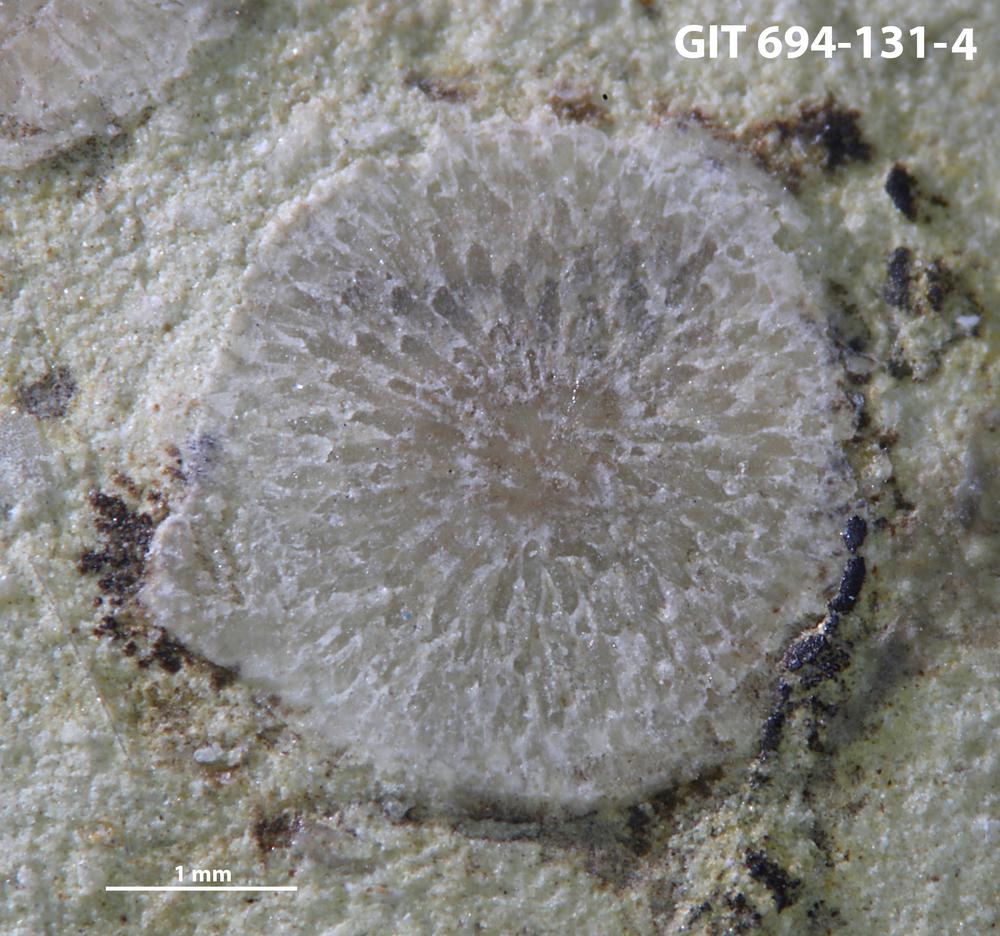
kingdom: Animalia
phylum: Bryozoa
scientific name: Bryozoa
